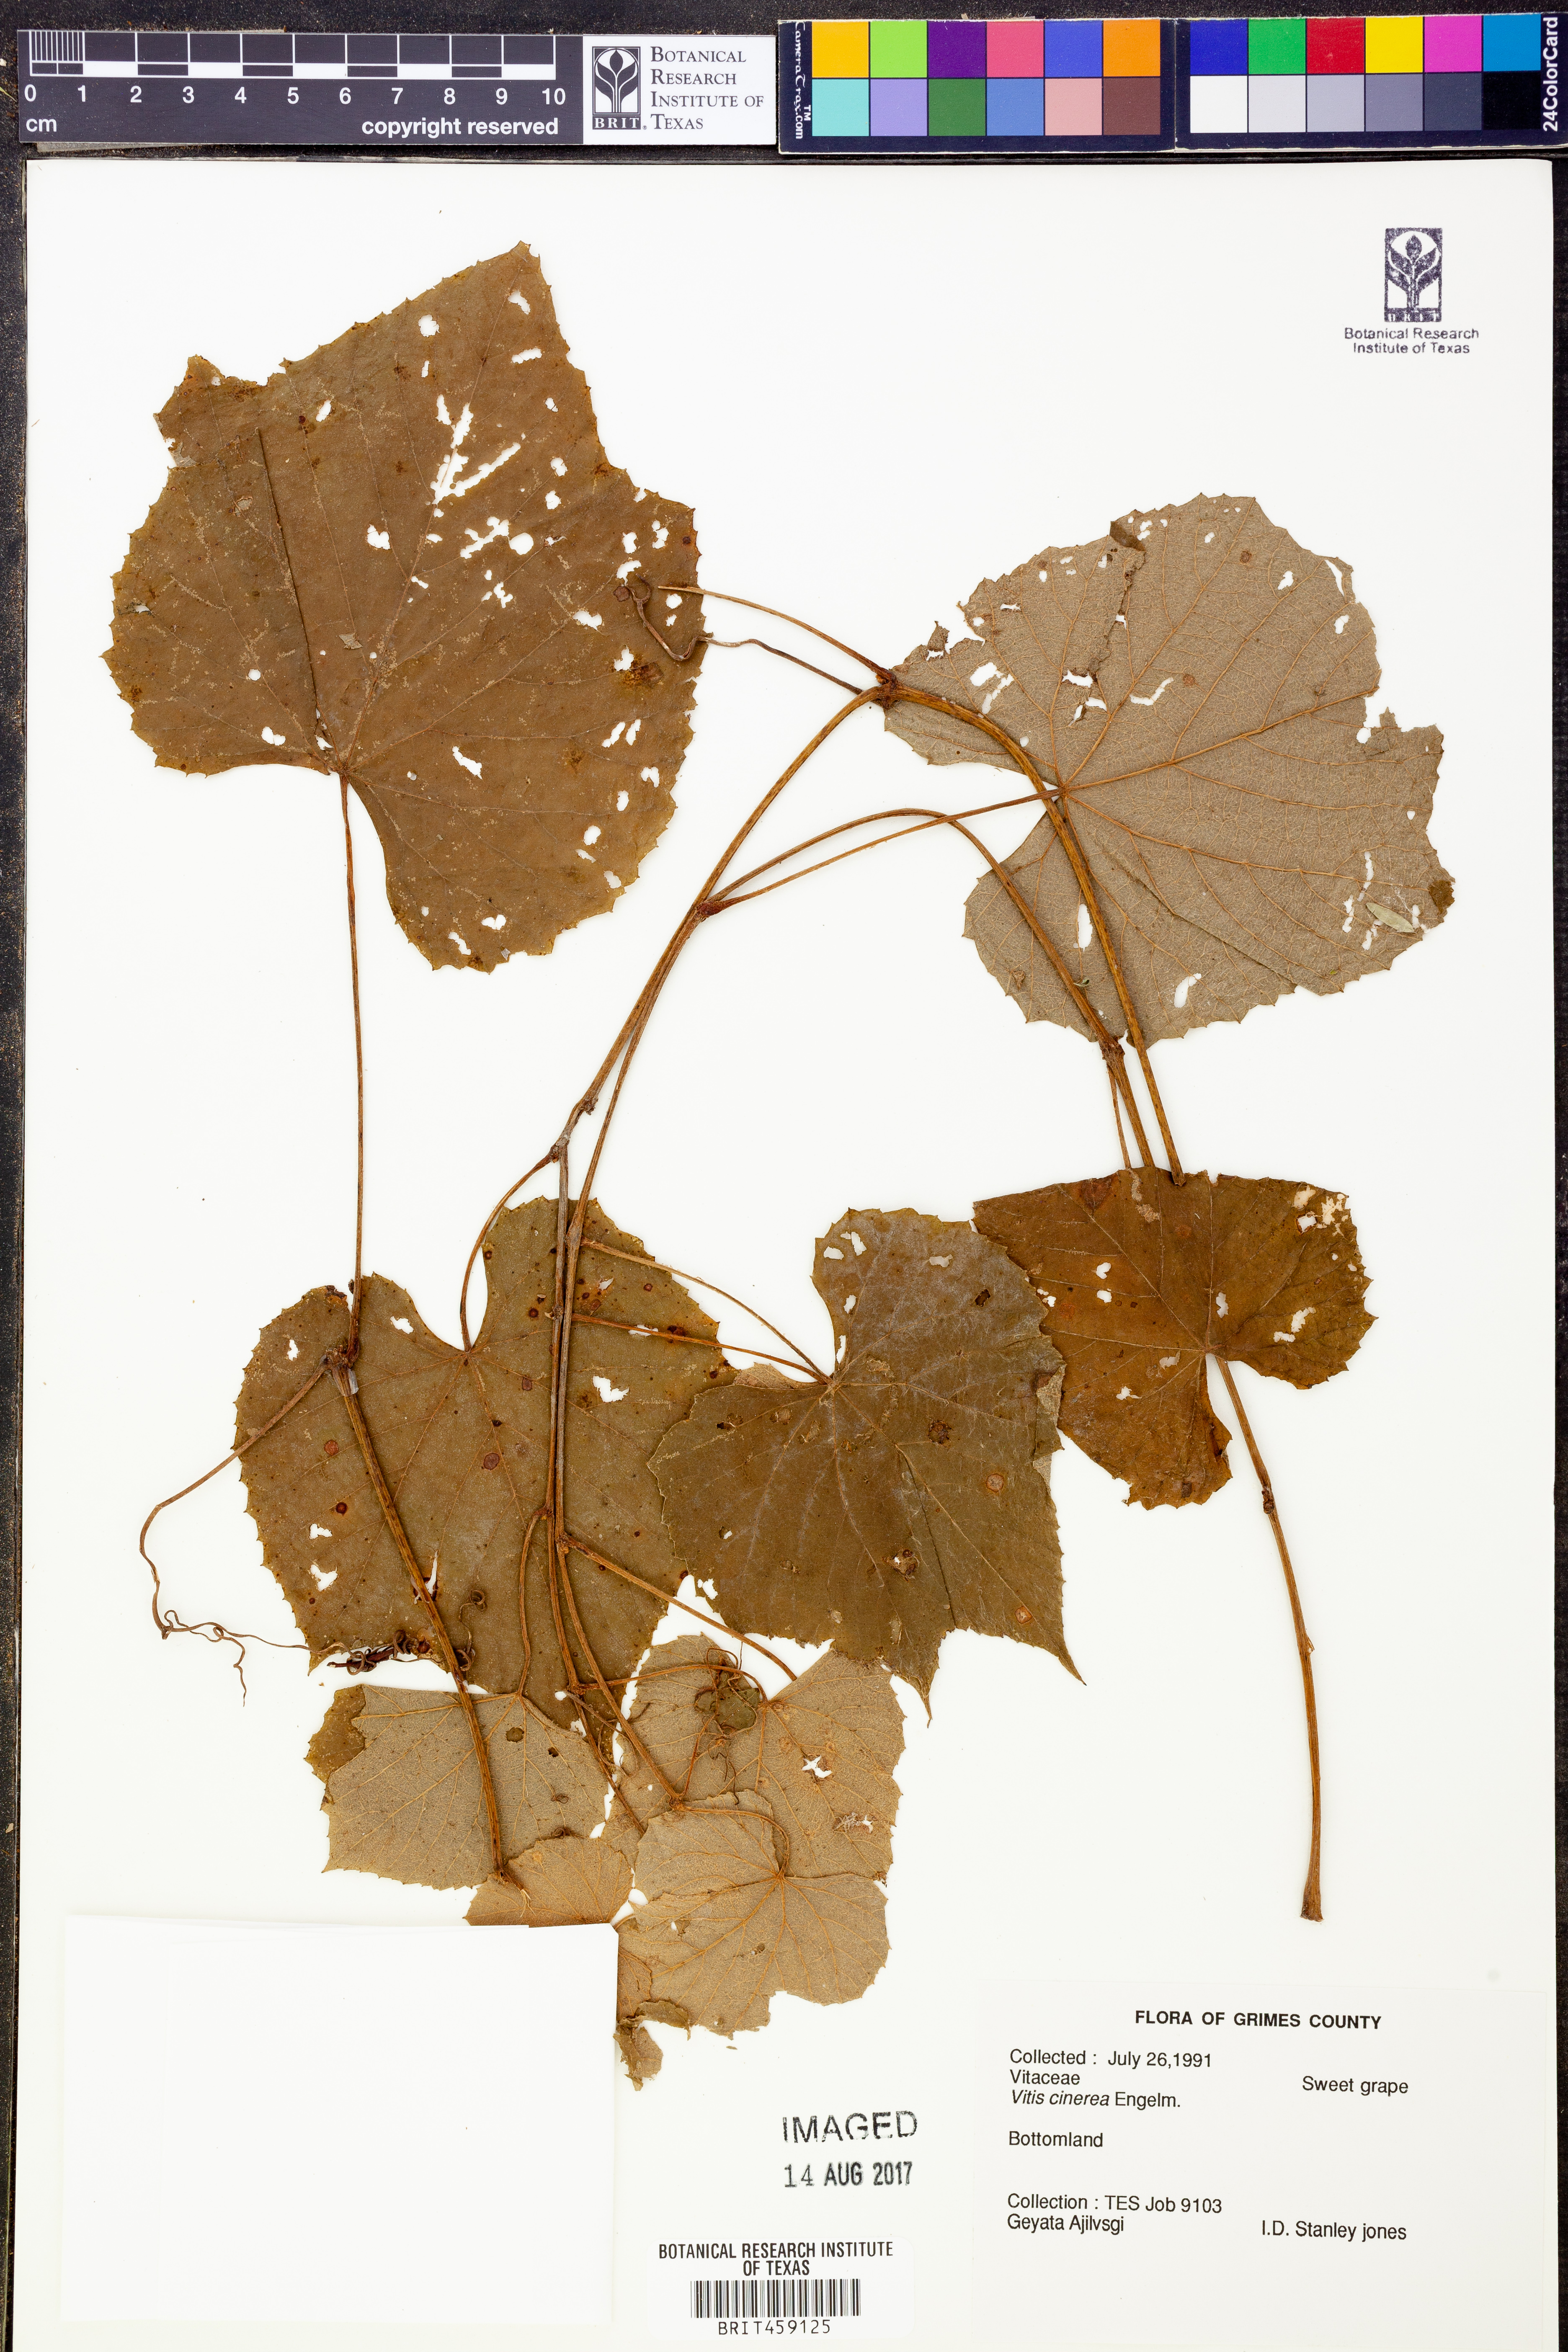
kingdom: Plantae
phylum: Tracheophyta
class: Magnoliopsida
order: Vitales
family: Vitaceae
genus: Vitis
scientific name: Vitis cinerea
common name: Ashy grape
